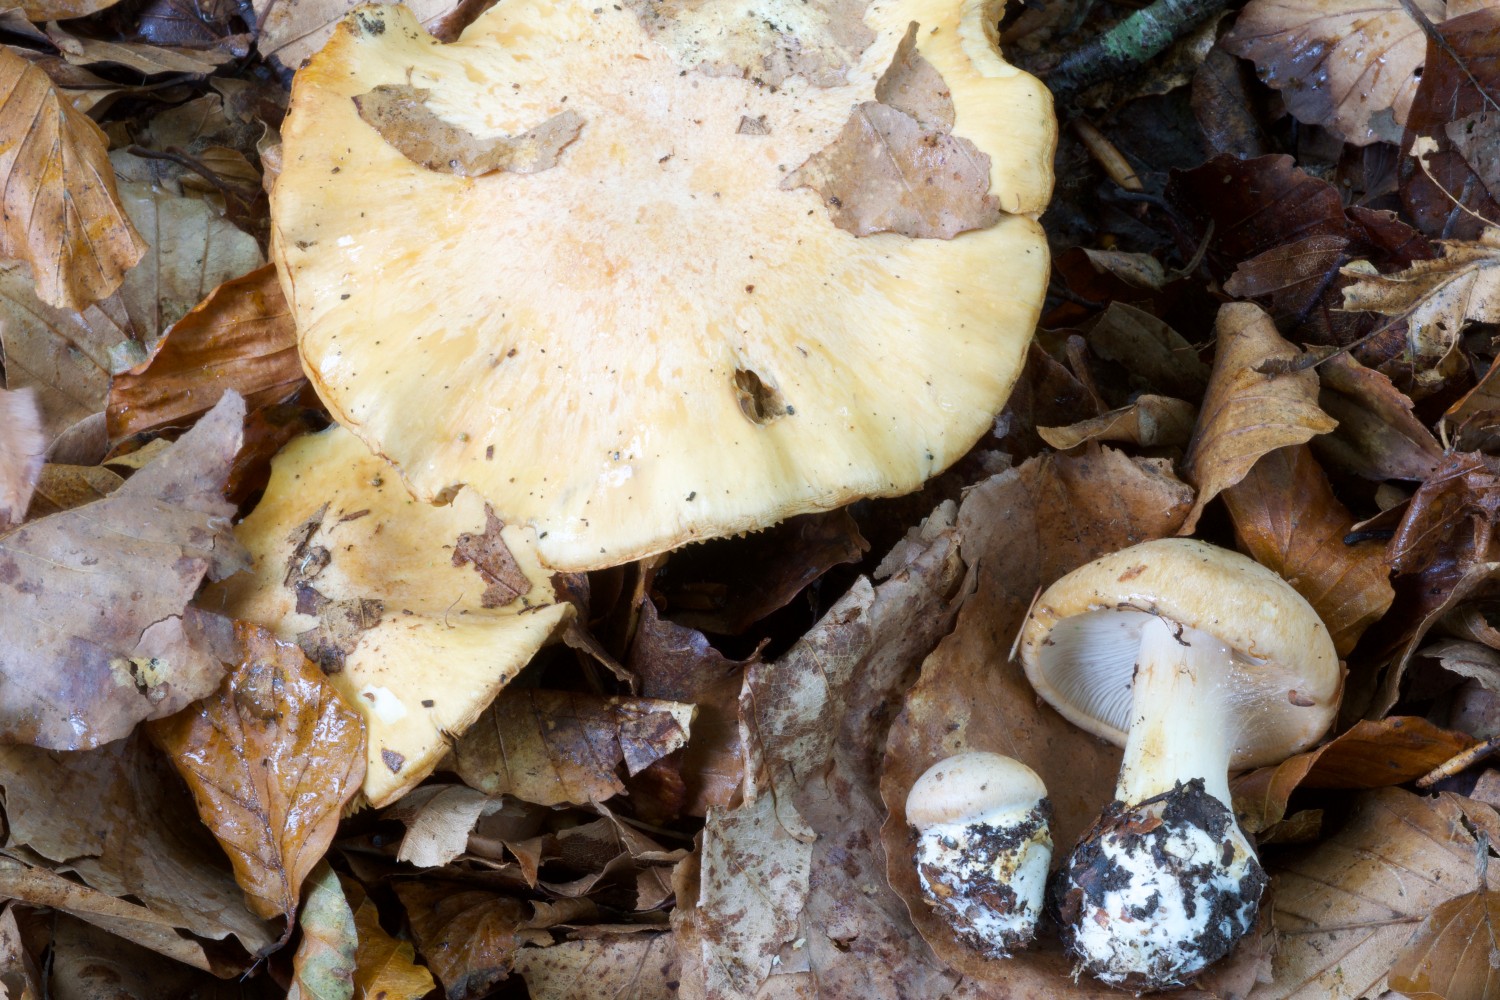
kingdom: Fungi
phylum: Basidiomycota
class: Agaricomycetes
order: Agaricales
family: Cortinariaceae
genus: Thaxterogaster
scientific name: Thaxterogaster talus
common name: knogle-slørhat
